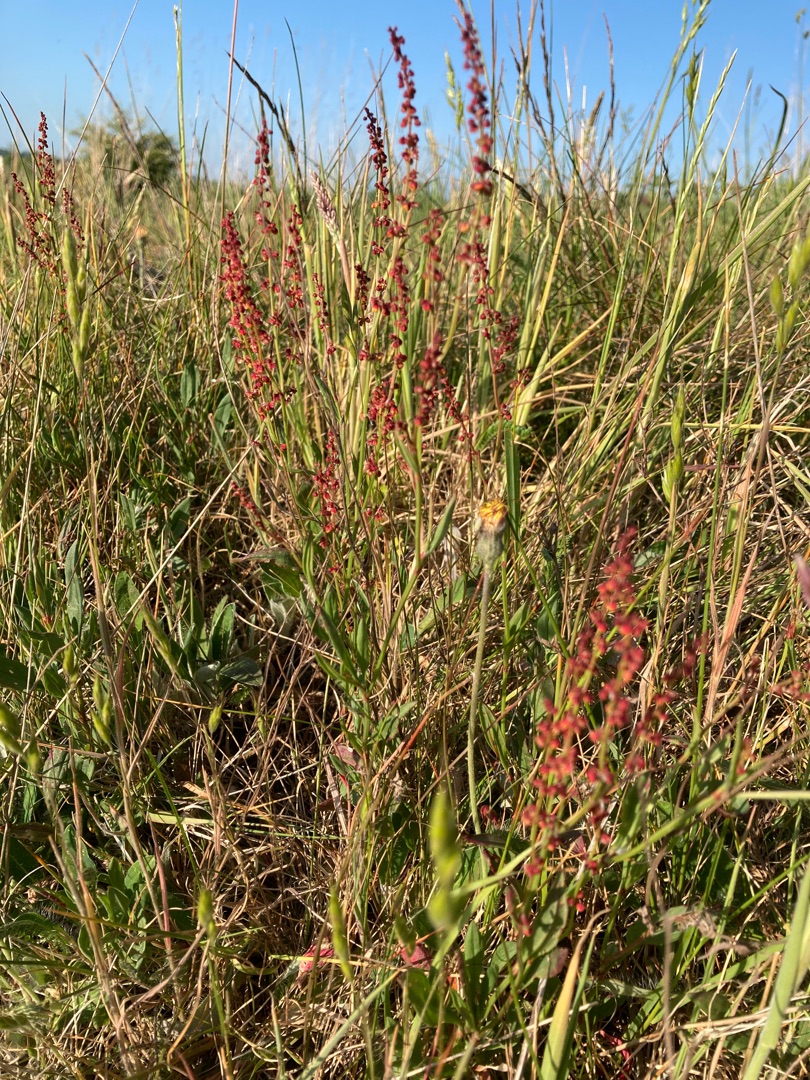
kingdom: Plantae
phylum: Tracheophyta
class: Magnoliopsida
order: Caryophyllales
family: Polygonaceae
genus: Rumex
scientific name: Rumex acetosella
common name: Rødknæ
